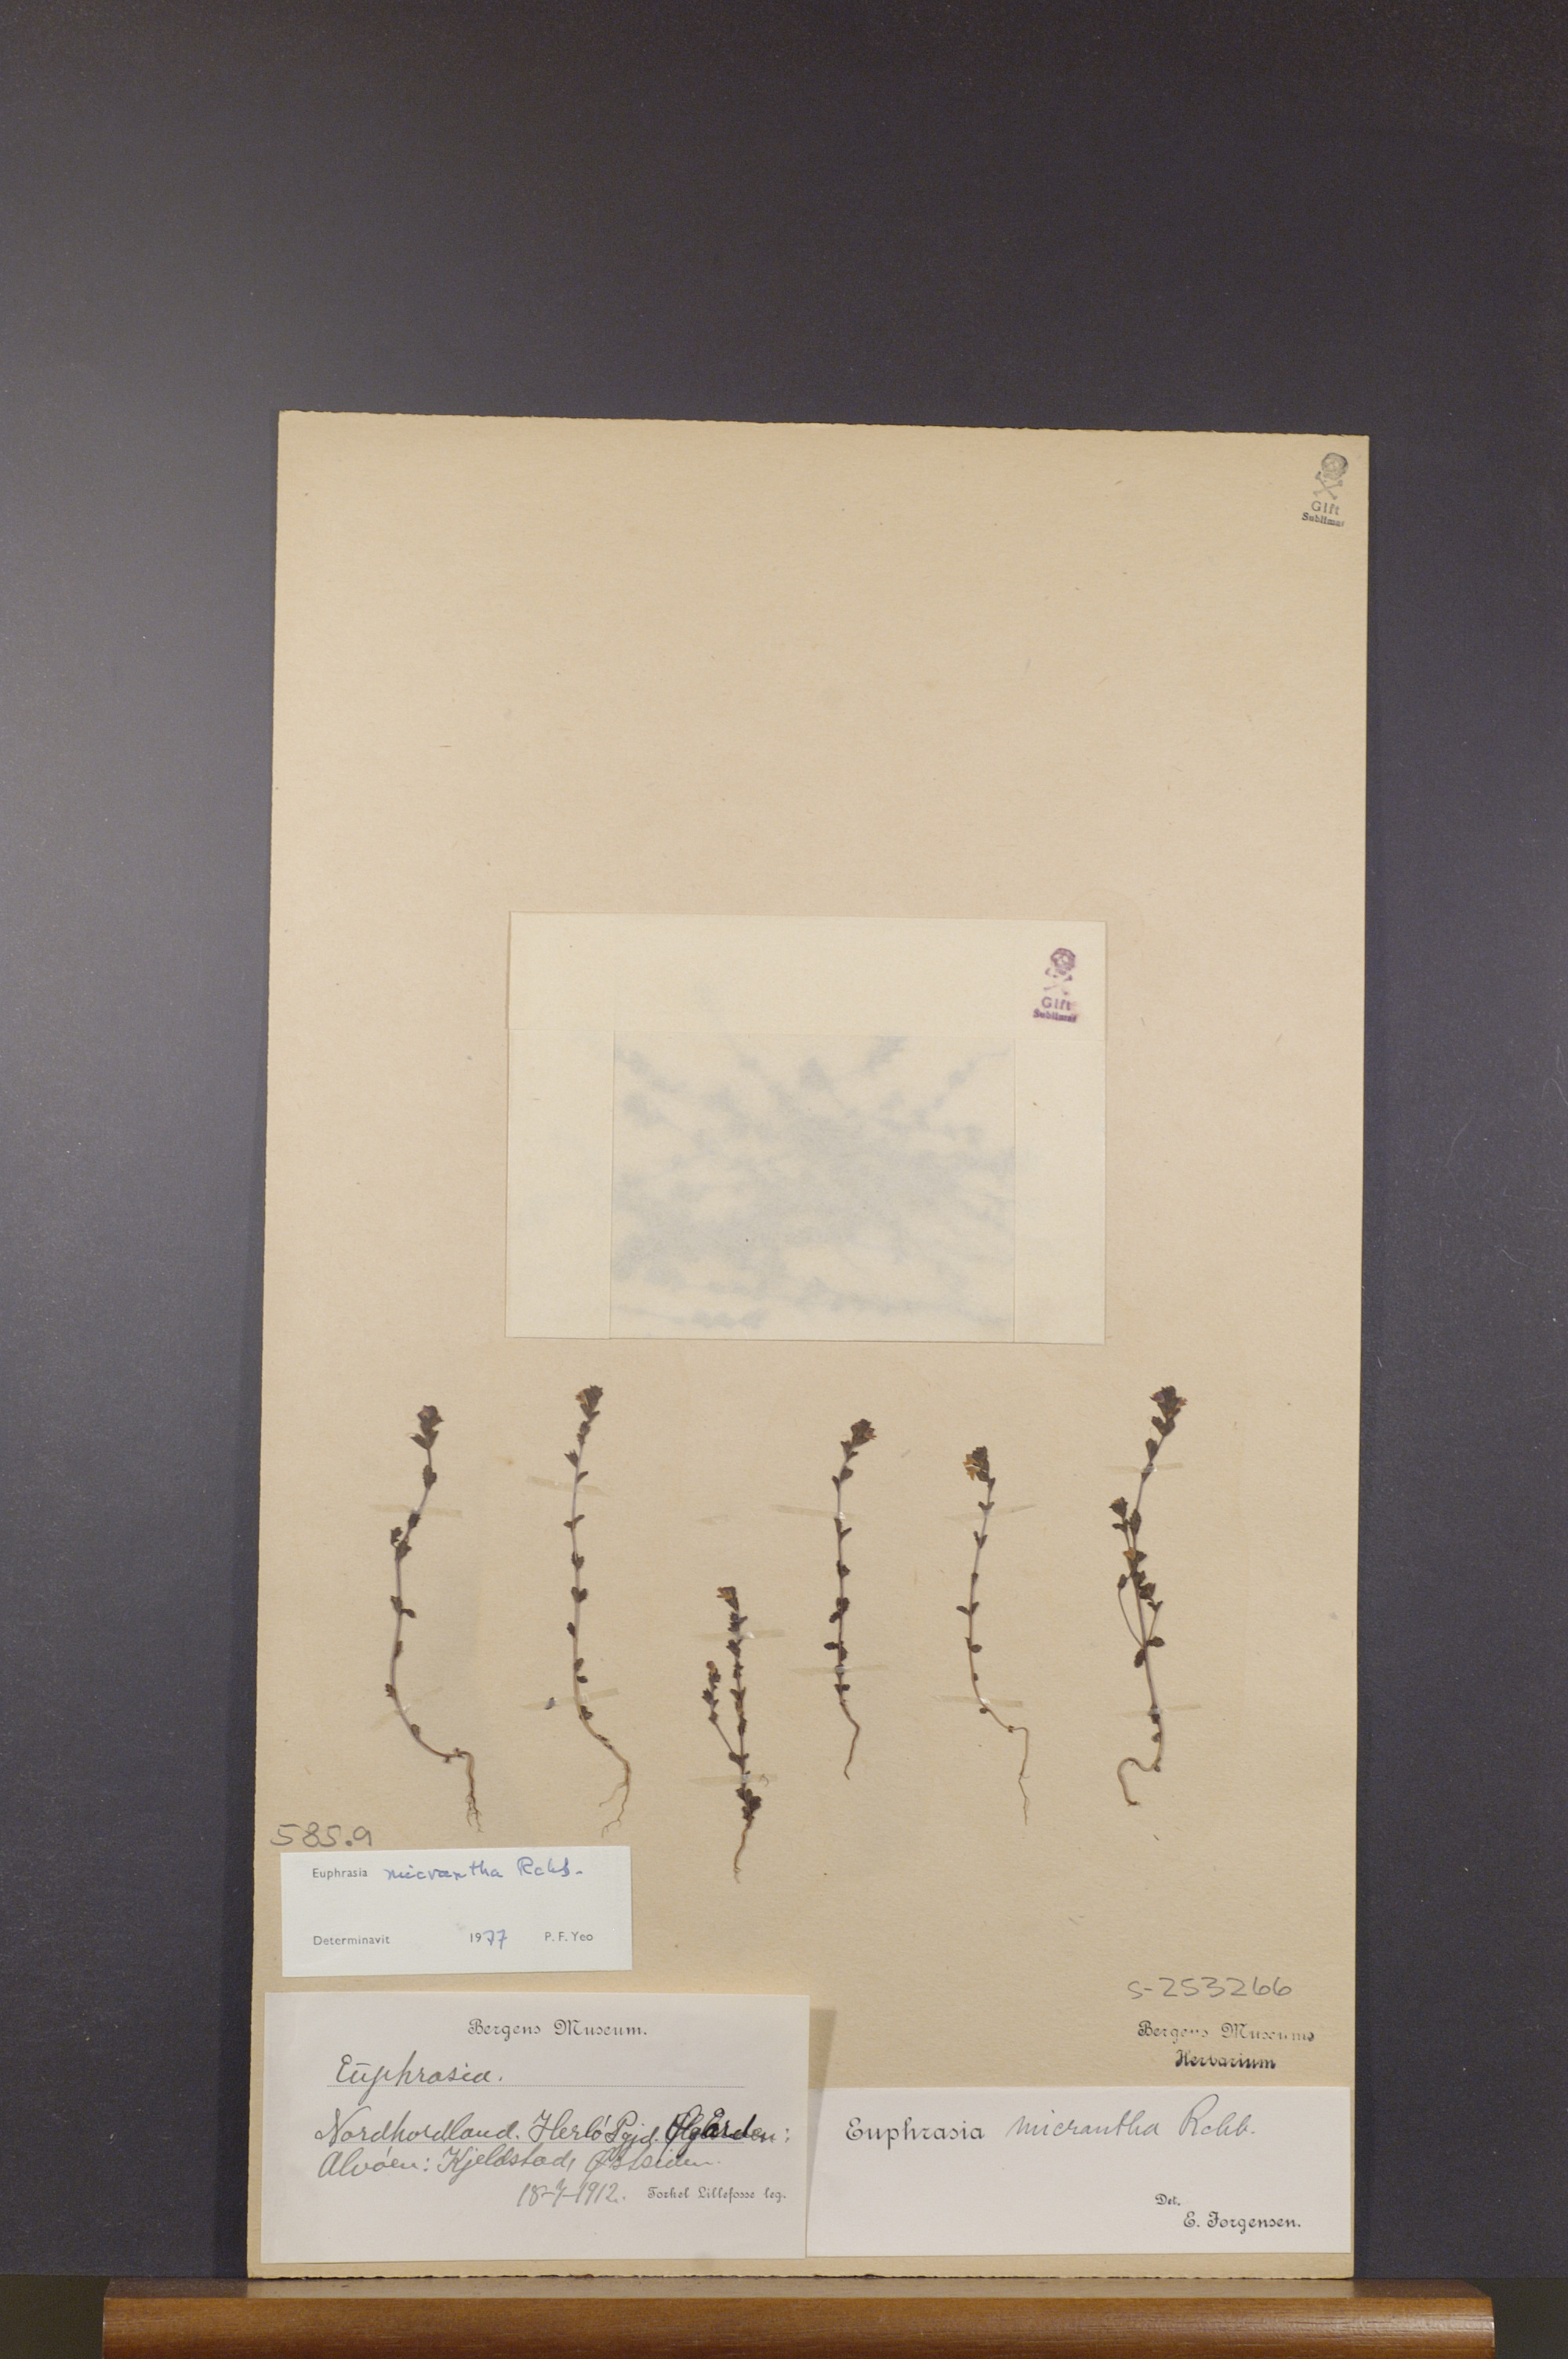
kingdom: Plantae
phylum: Tracheophyta
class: Magnoliopsida
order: Lamiales
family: Orobanchaceae
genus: Euphrasia
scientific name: Euphrasia micrantha
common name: Northern eyebright
